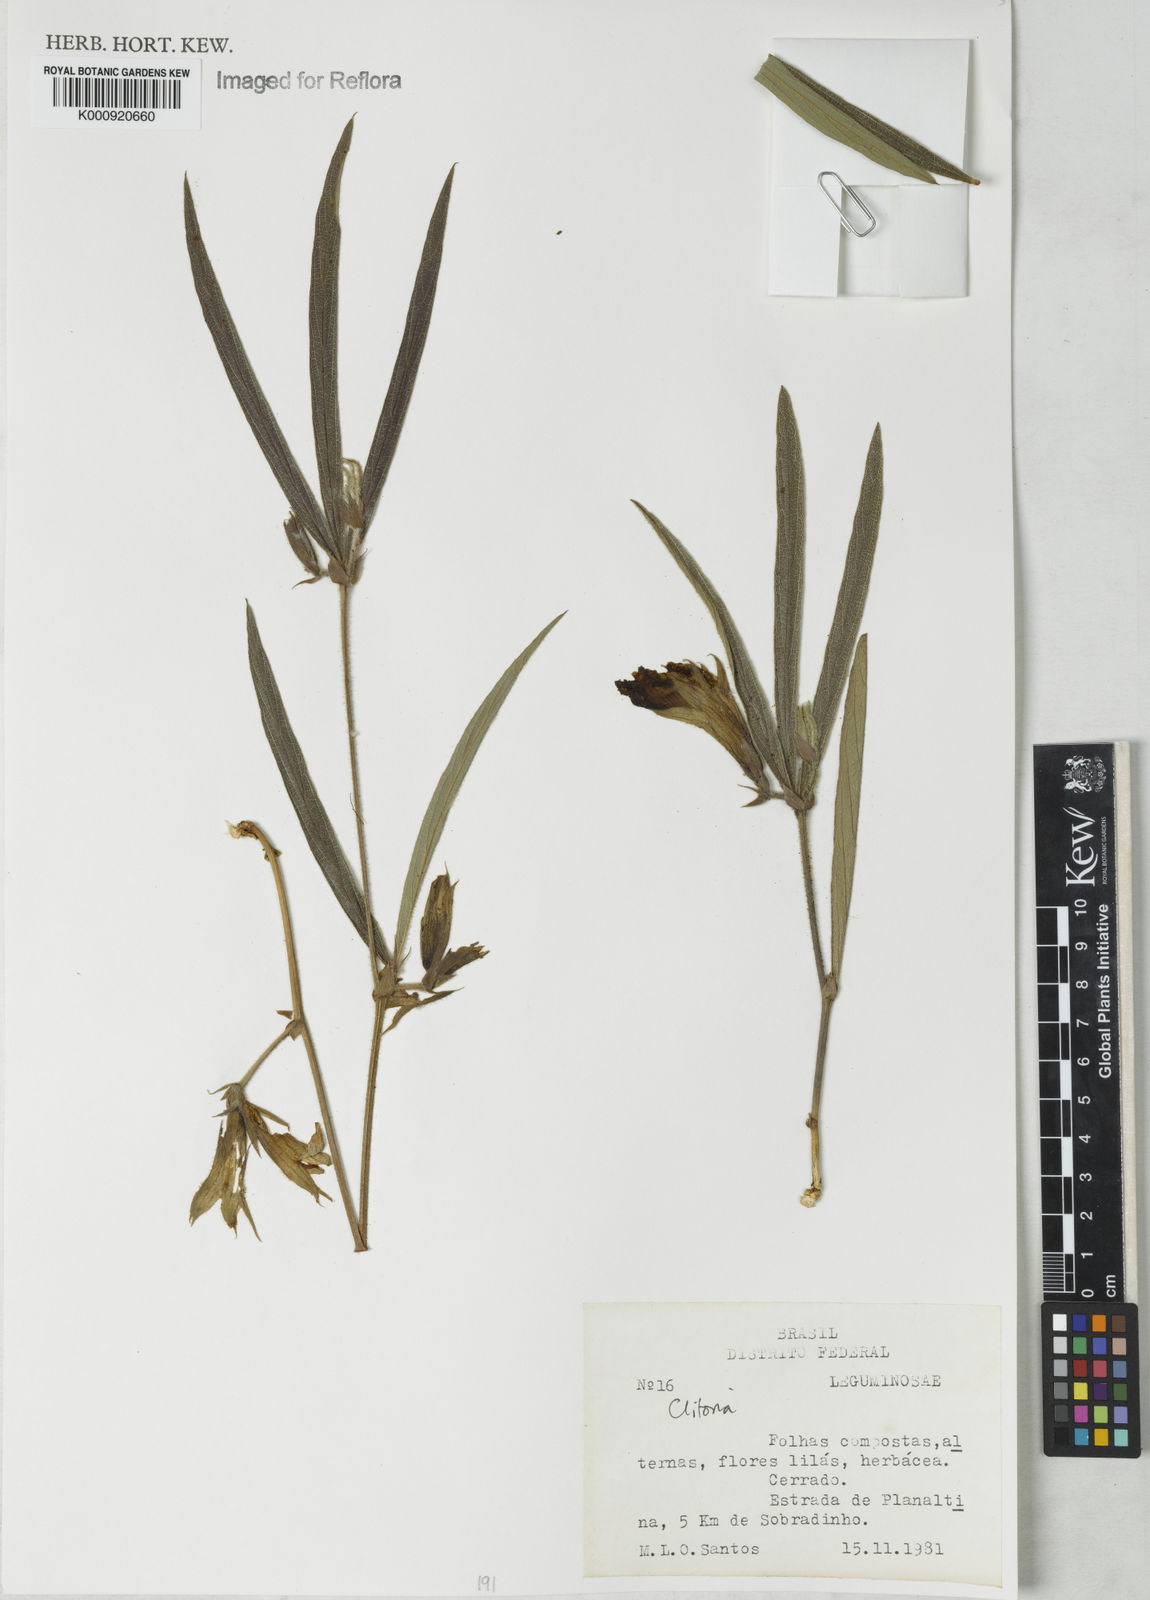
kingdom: Plantae
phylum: Tracheophyta
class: Magnoliopsida
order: Fabales
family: Fabaceae
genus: Clitoria
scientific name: Clitoria
